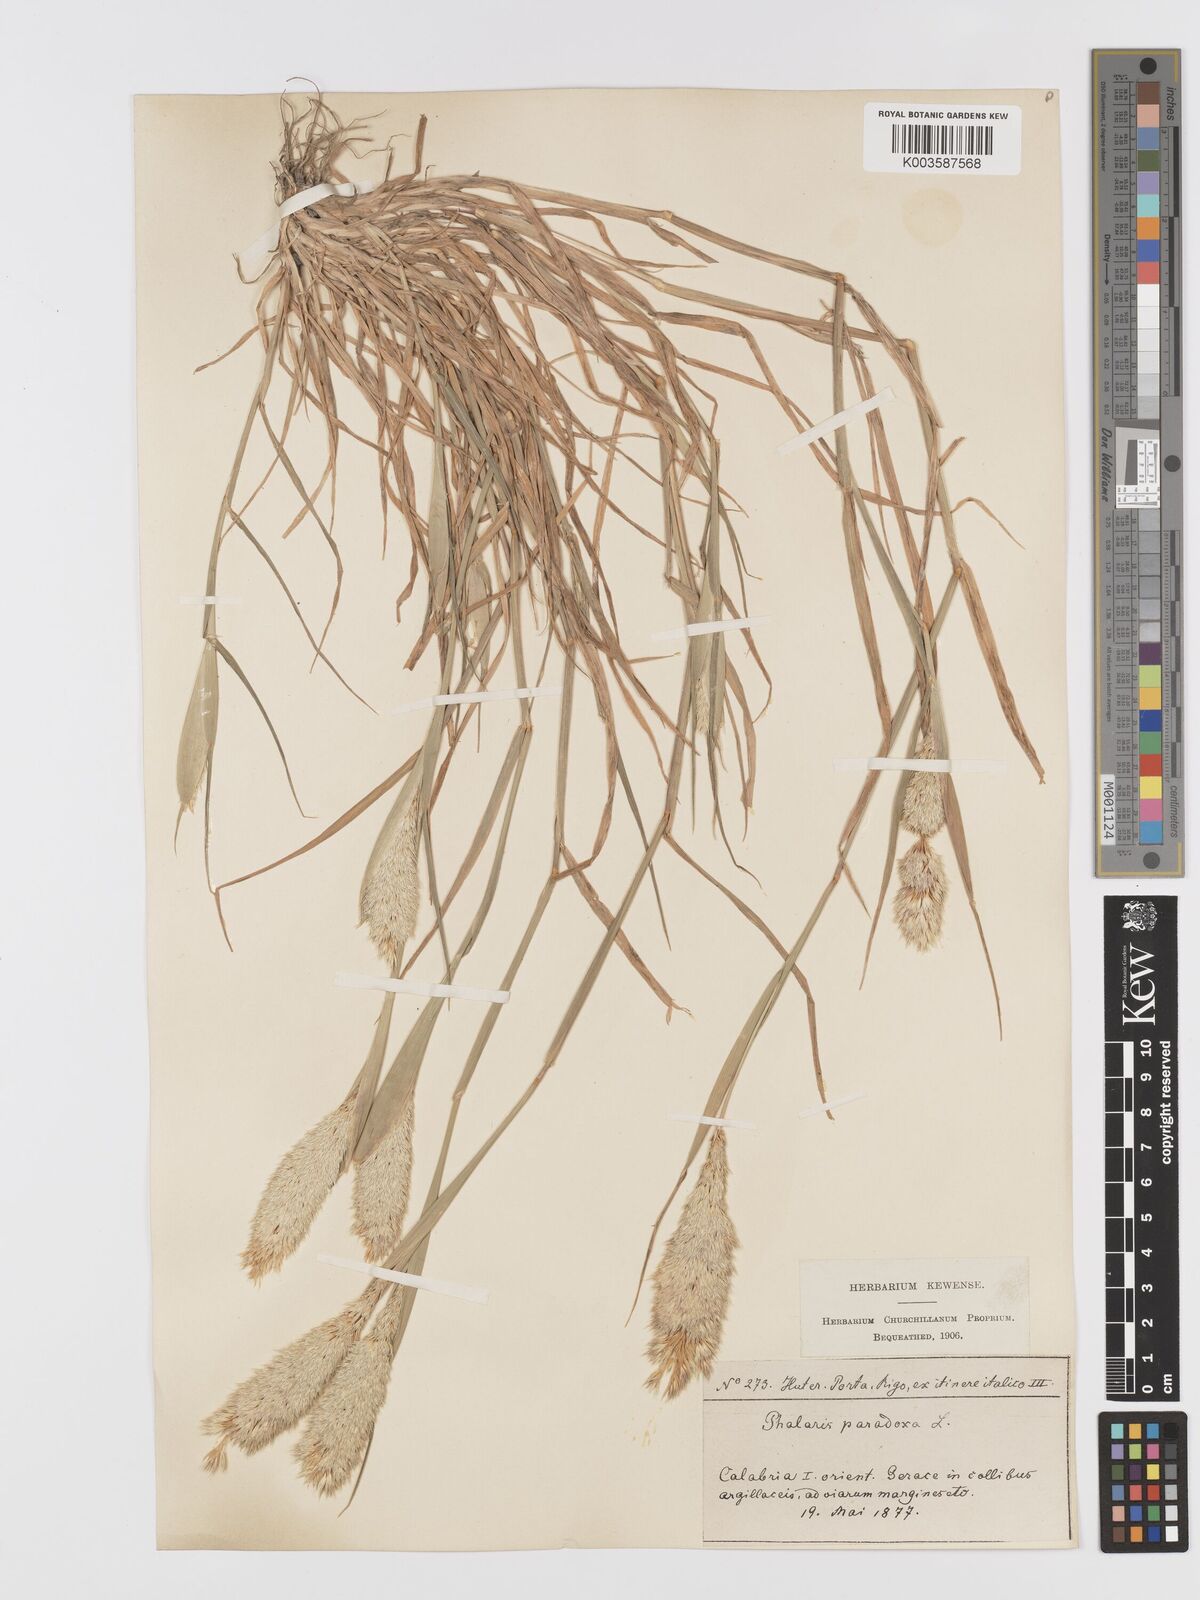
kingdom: Plantae
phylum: Tracheophyta
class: Liliopsida
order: Poales
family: Poaceae
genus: Phalaris
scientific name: Phalaris paradoxa
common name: Awned canary-grass
